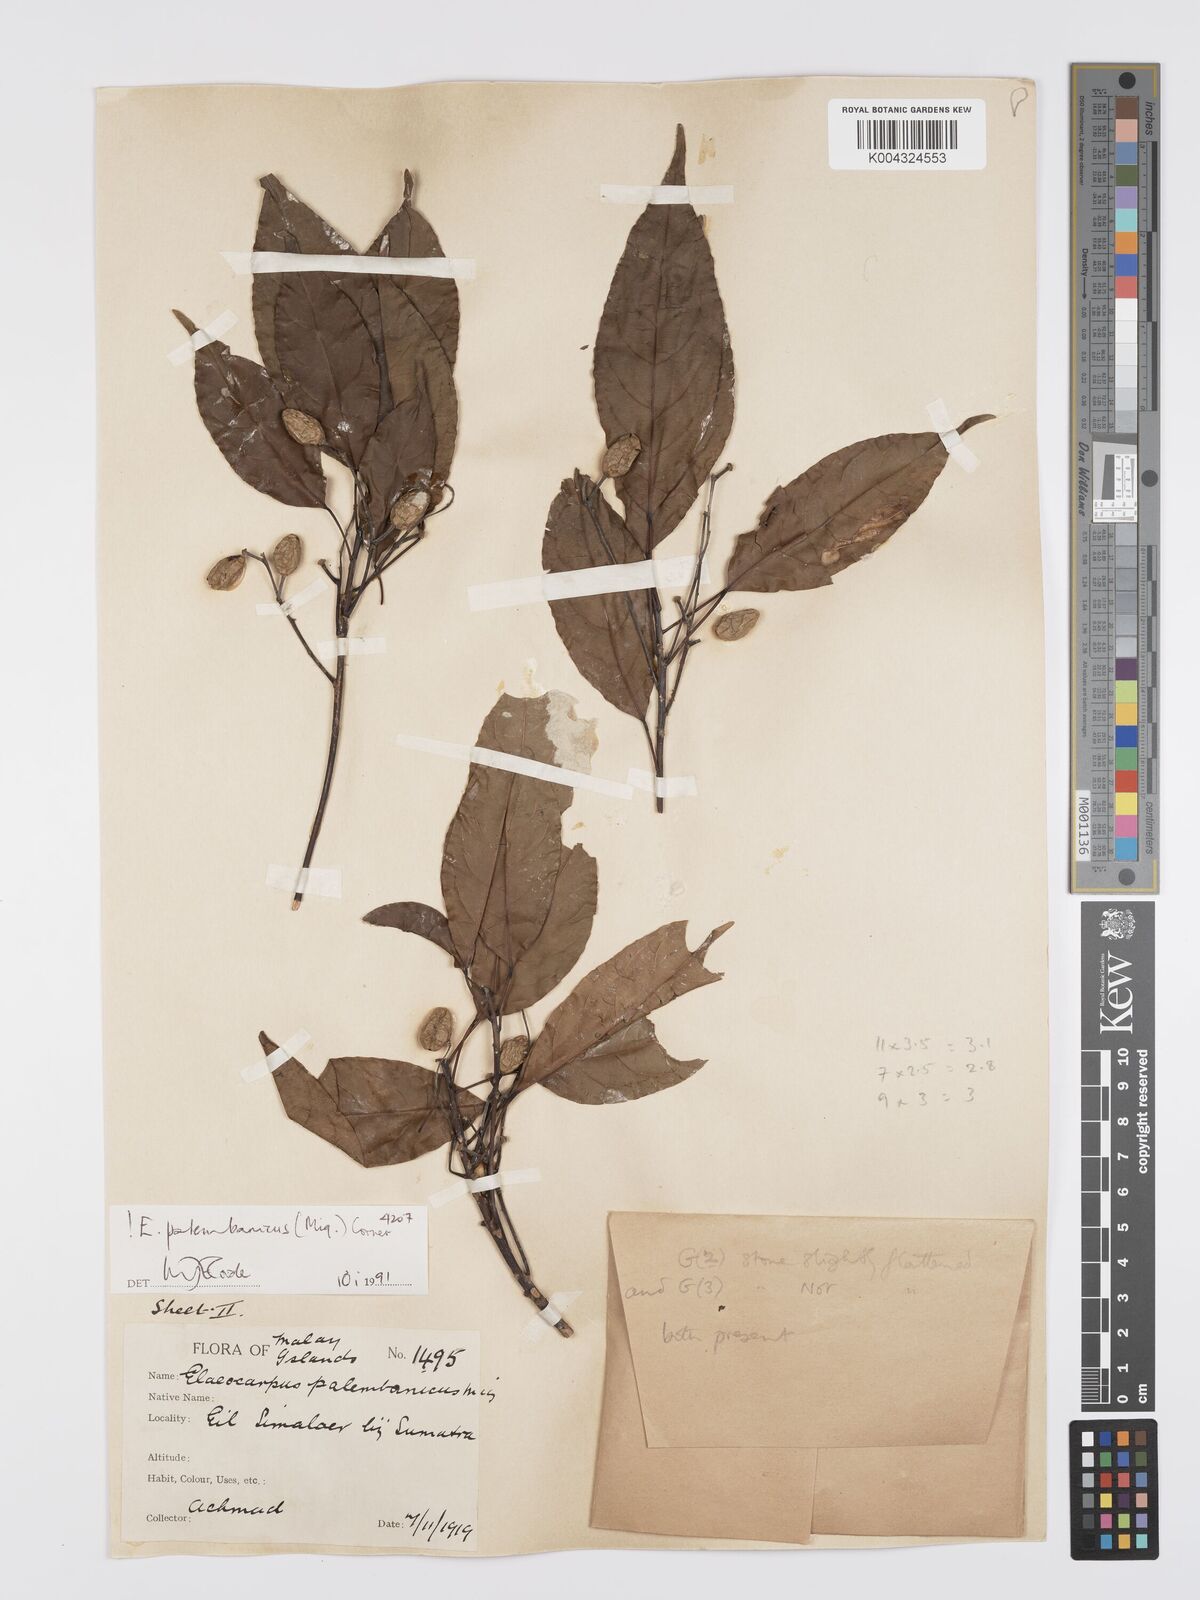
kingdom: Plantae
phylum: Tracheophyta
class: Magnoliopsida
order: Oxalidales
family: Elaeocarpaceae
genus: Elaeocarpus
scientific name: Elaeocarpus palembanicus
